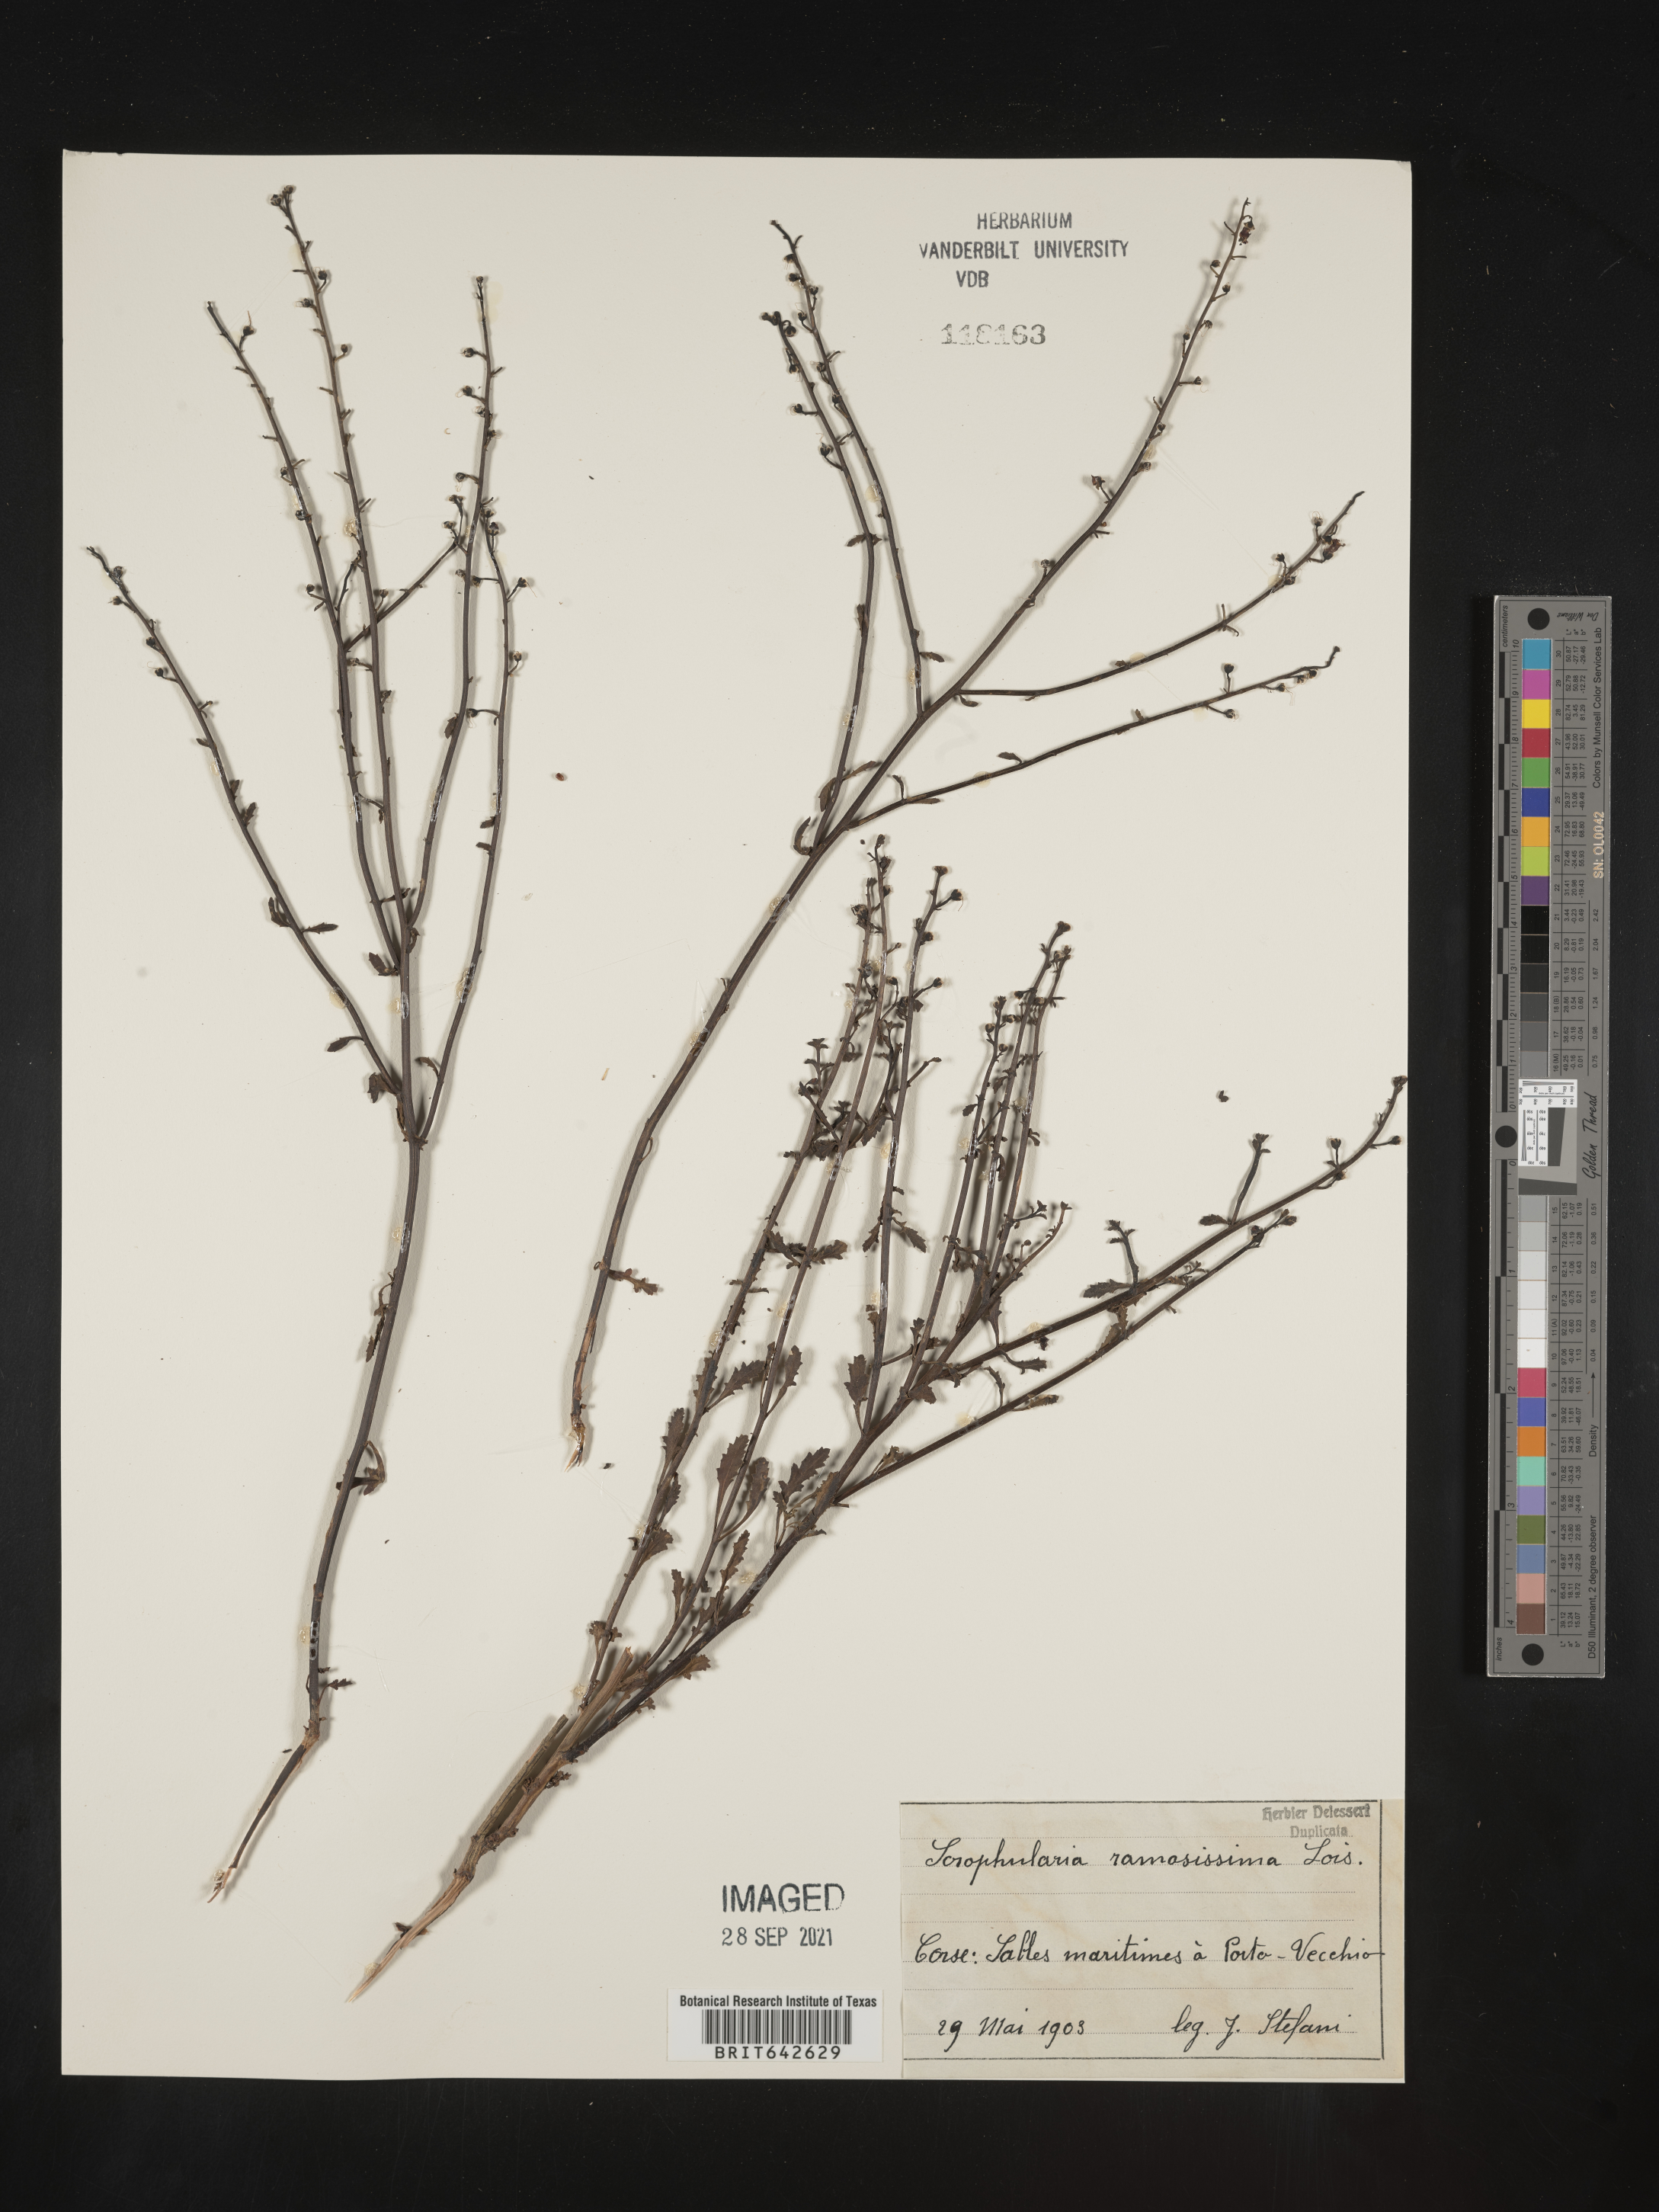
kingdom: Plantae
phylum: Tracheophyta
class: Magnoliopsida
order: Lamiales
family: Scrophulariaceae
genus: Scrophularia
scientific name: Scrophularia
